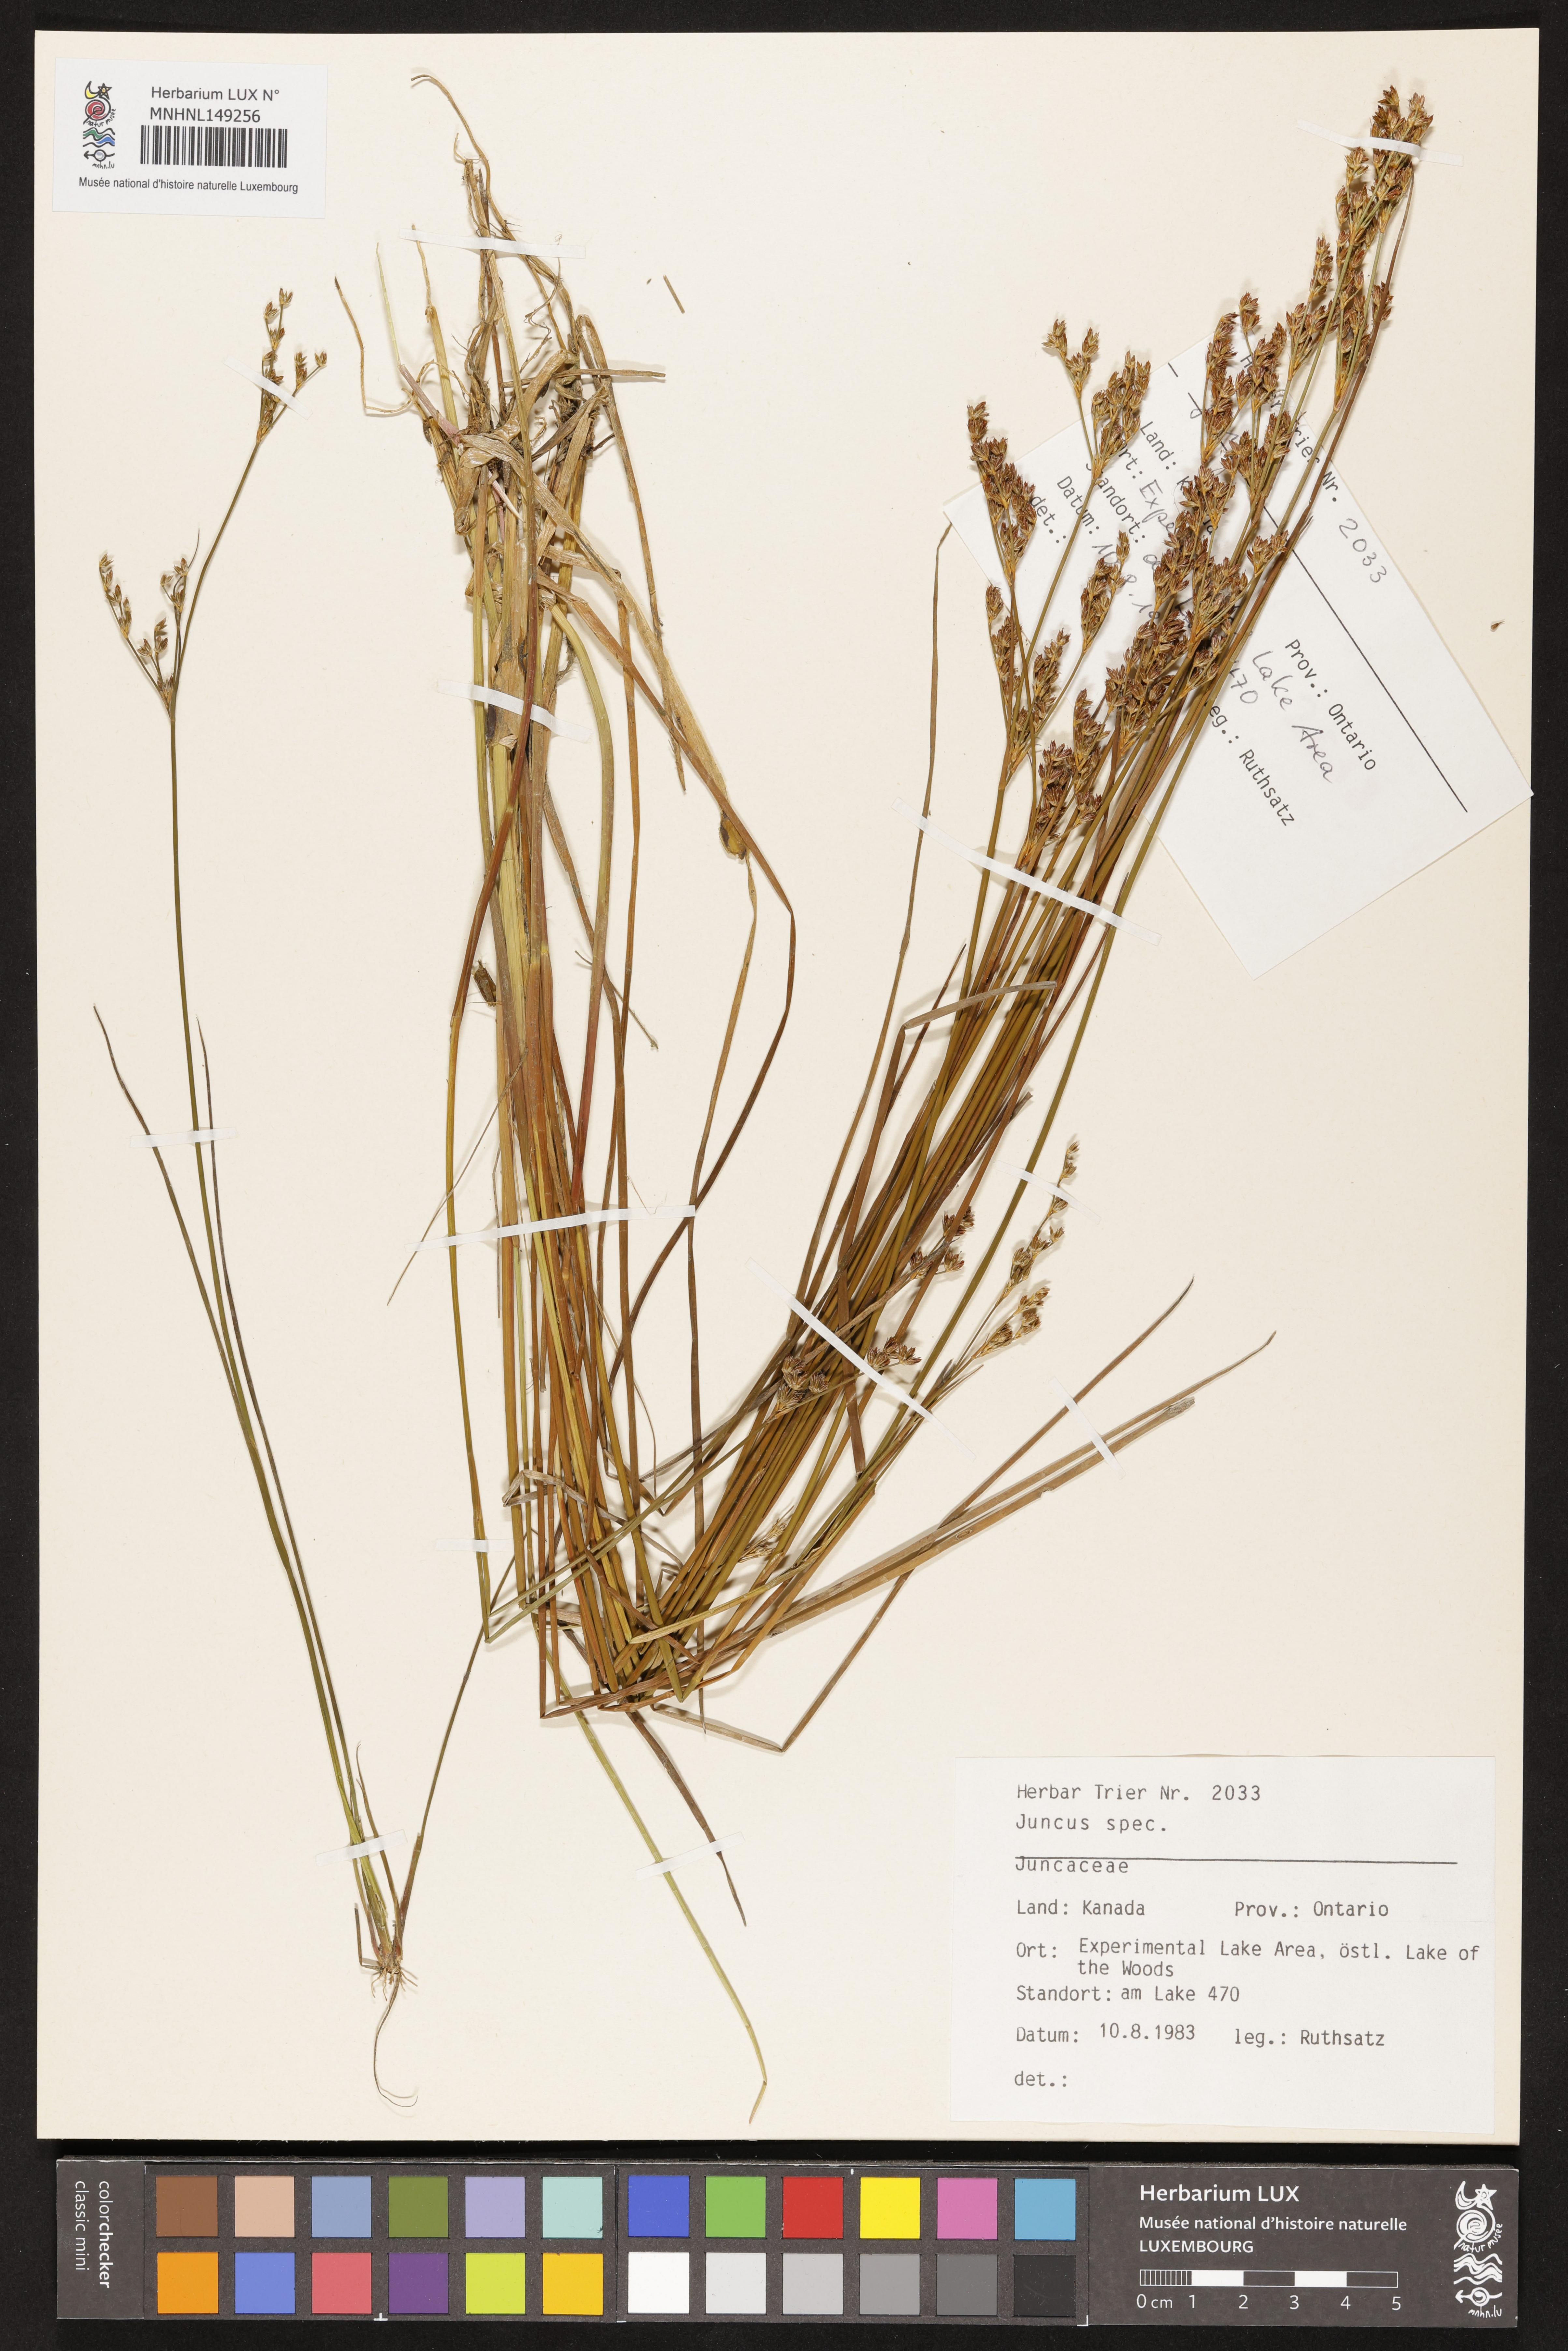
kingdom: Plantae
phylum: Tracheophyta
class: Liliopsida
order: Poales
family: Juncaceae
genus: Juncus
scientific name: Juncus
